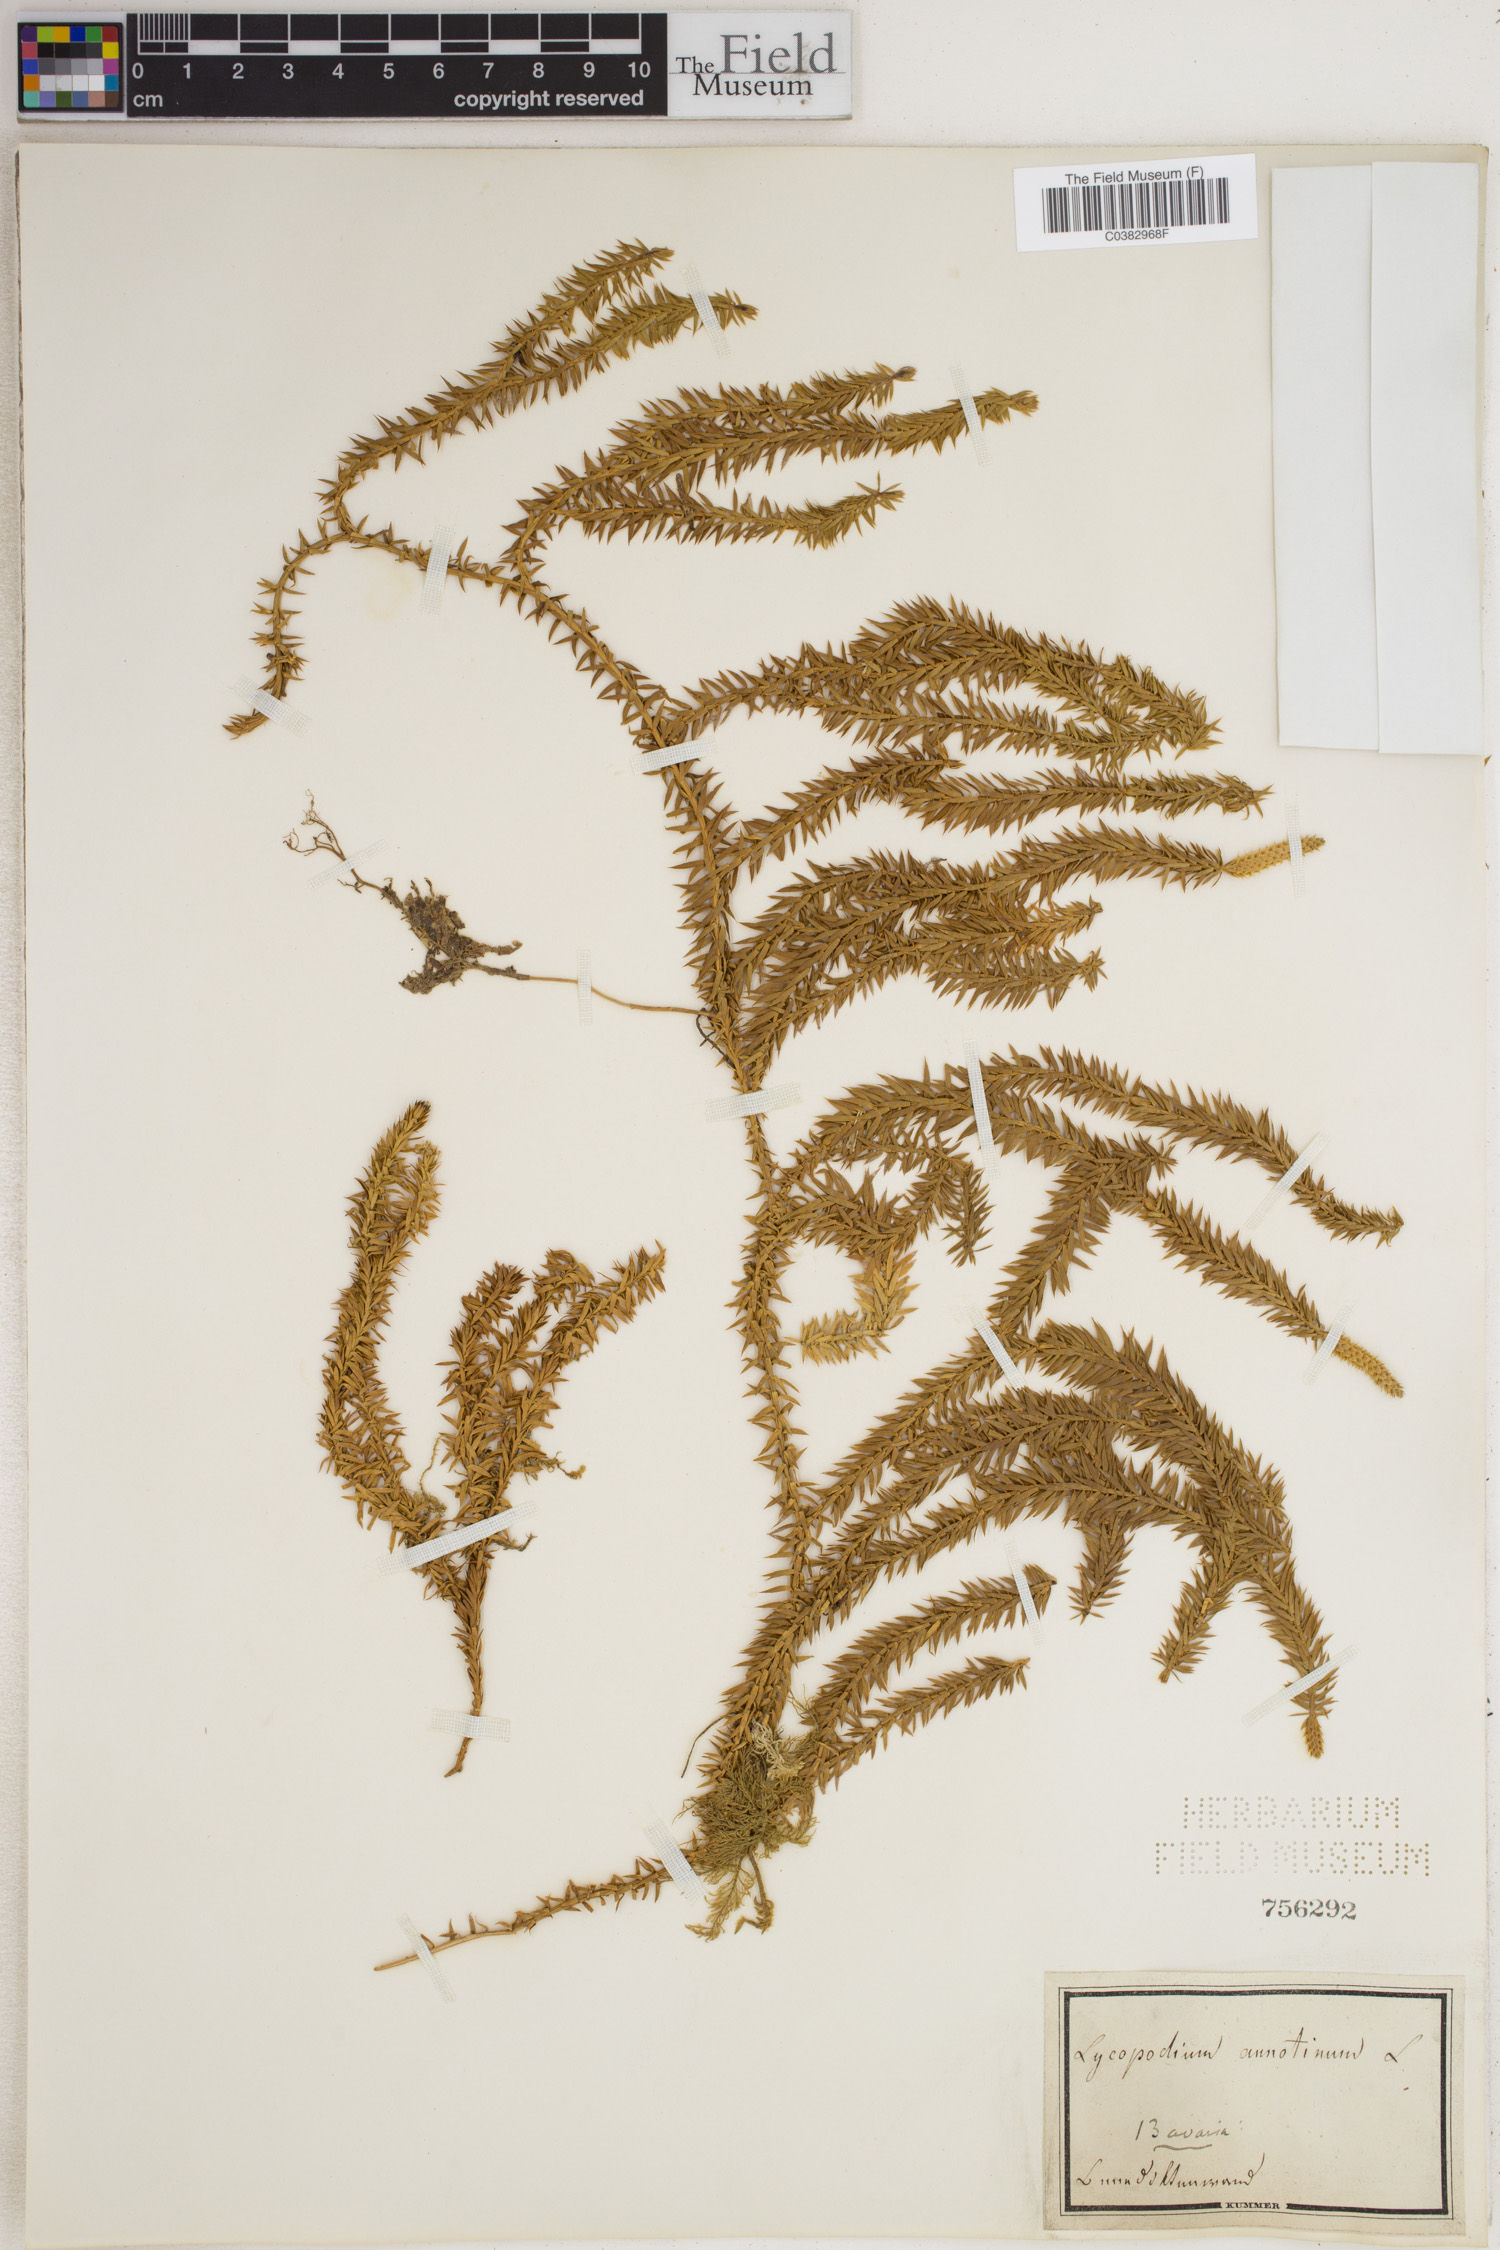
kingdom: Plantae
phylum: Tracheophyta
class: Lycopodiopsida
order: Lycopodiales
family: Lycopodiaceae
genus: Spinulum
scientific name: Spinulum annotinum
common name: Interrupted club-moss
